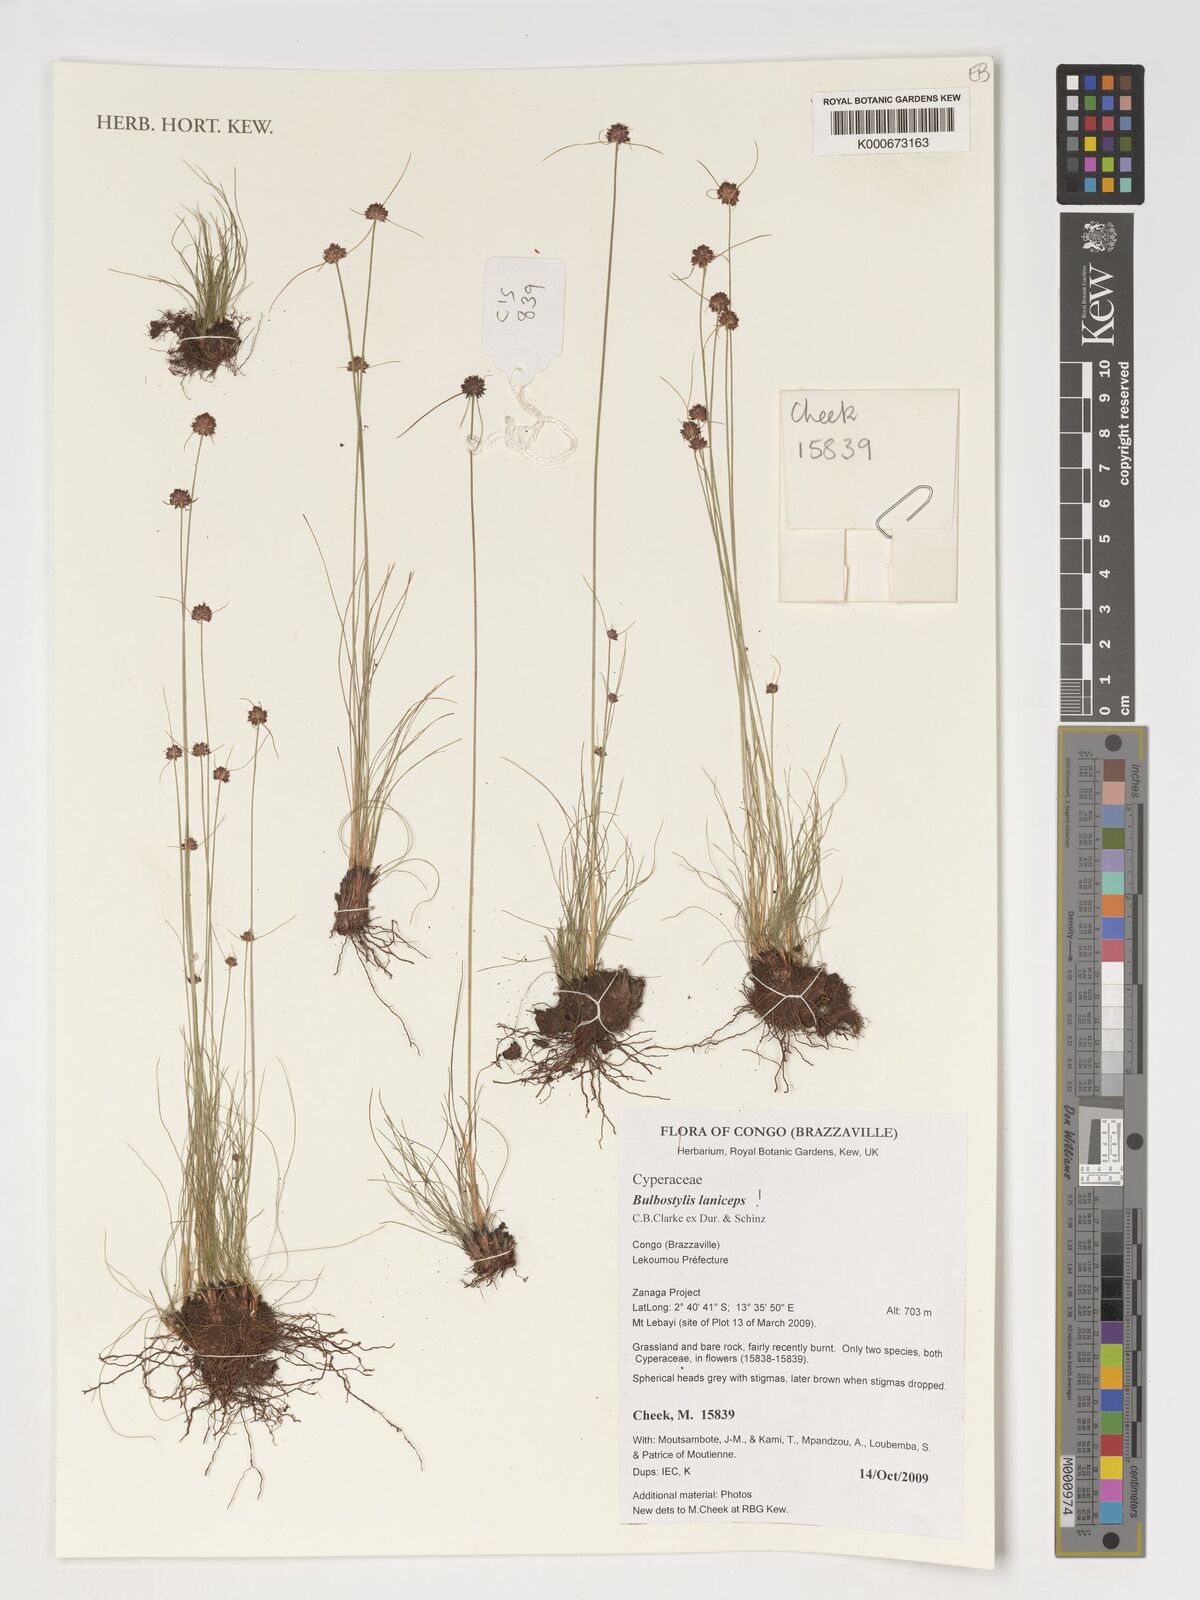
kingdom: Plantae
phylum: Tracheophyta
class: Liliopsida
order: Poales
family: Cyperaceae
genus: Bulbostylis
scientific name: Bulbostylis laniceps
